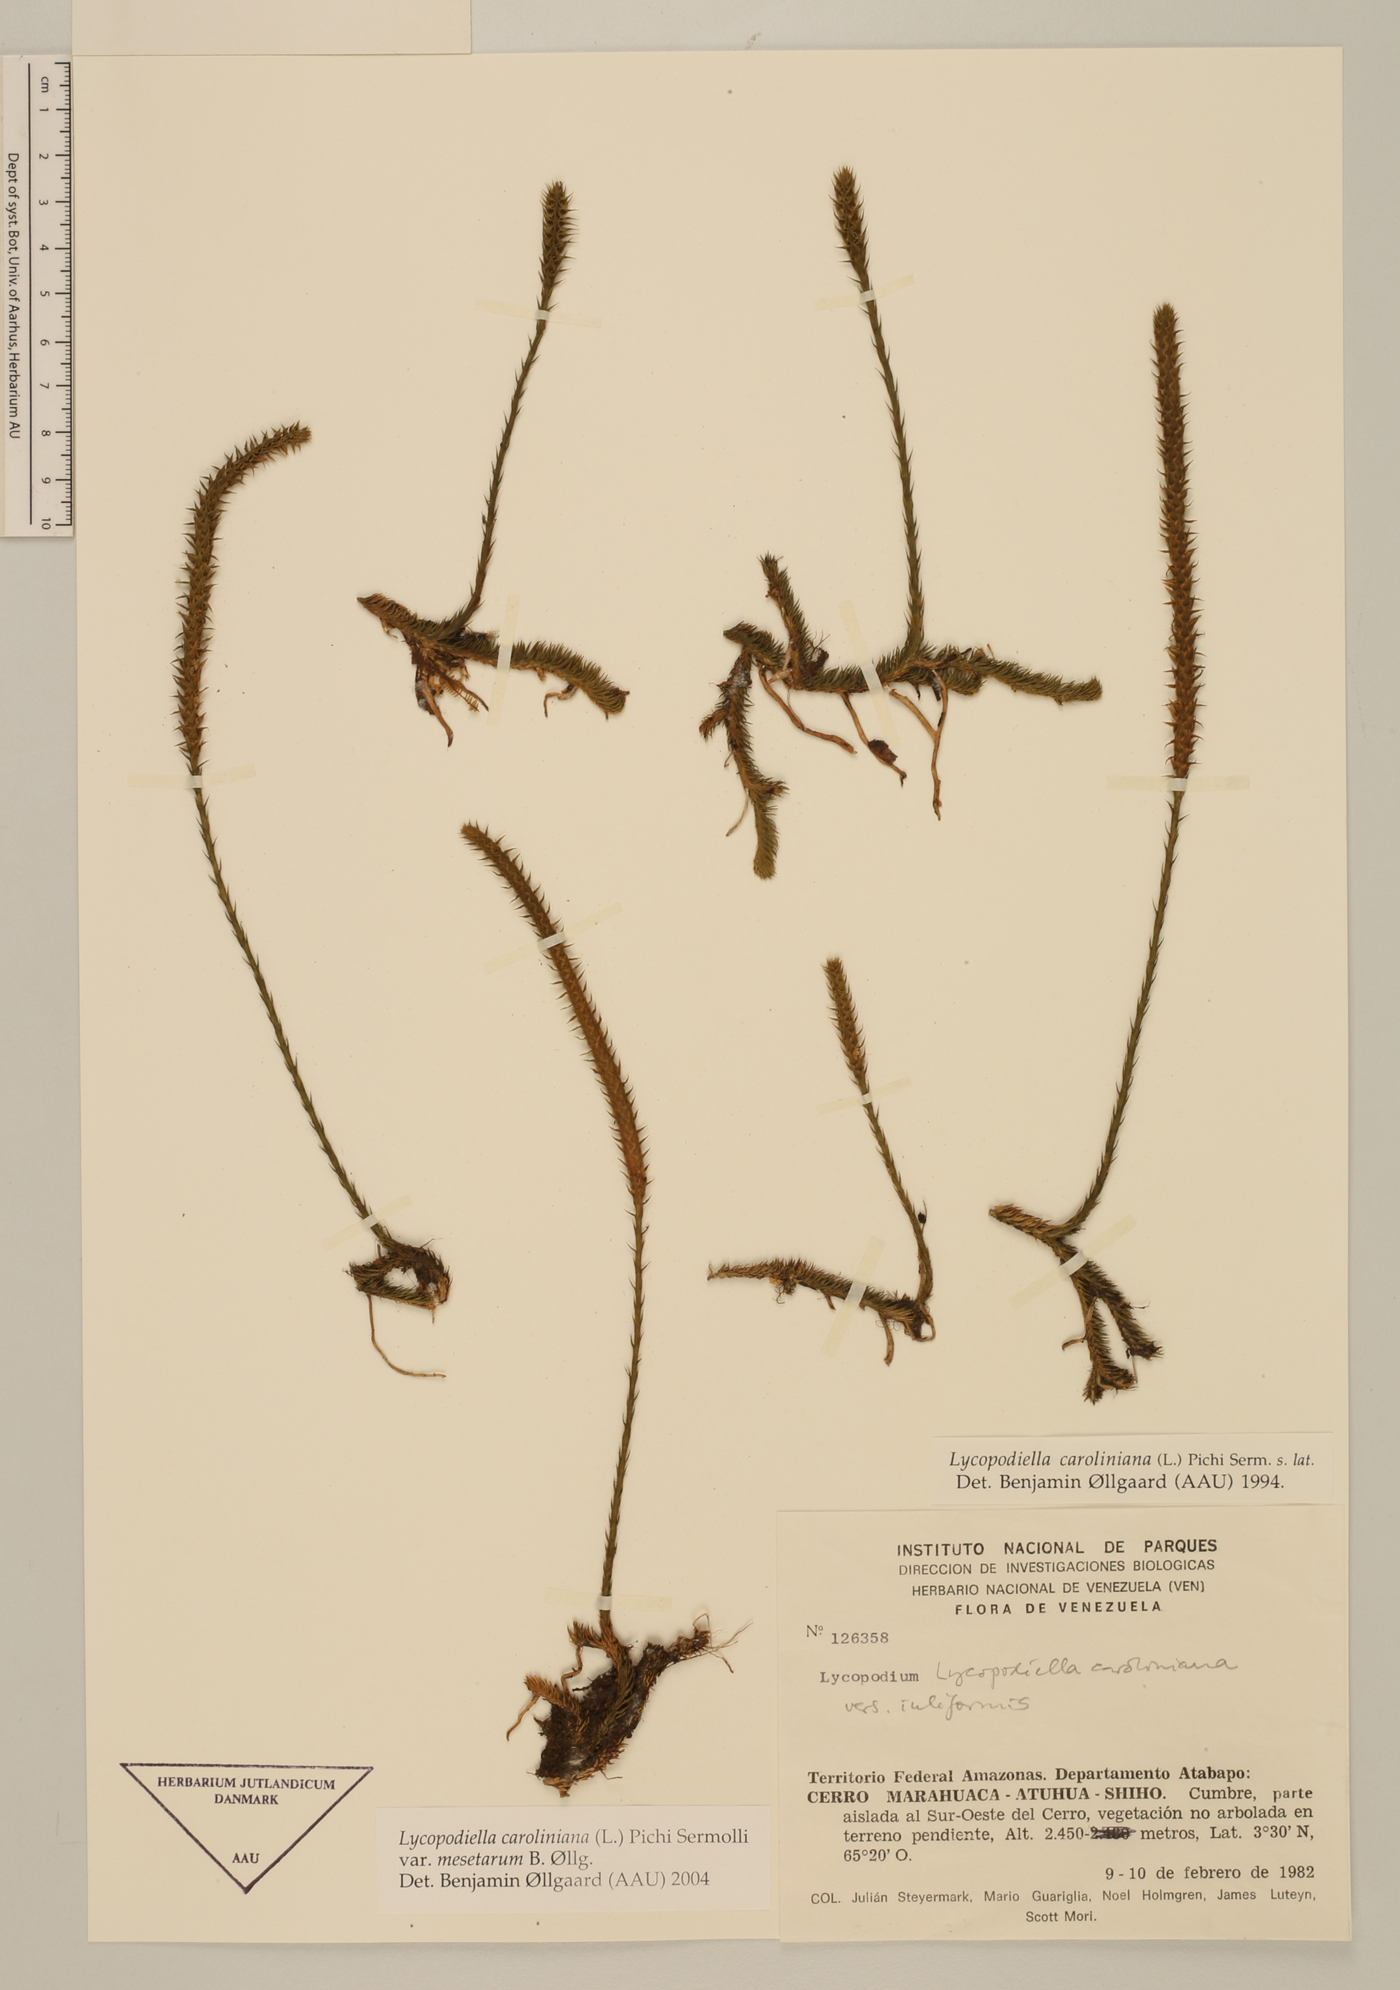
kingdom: Plantae
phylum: Tracheophyta
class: Lycopodiopsida
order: Lycopodiales
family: Lycopodiaceae
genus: Pseudolycopodiella
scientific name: Pseudolycopodiella iuliformis
